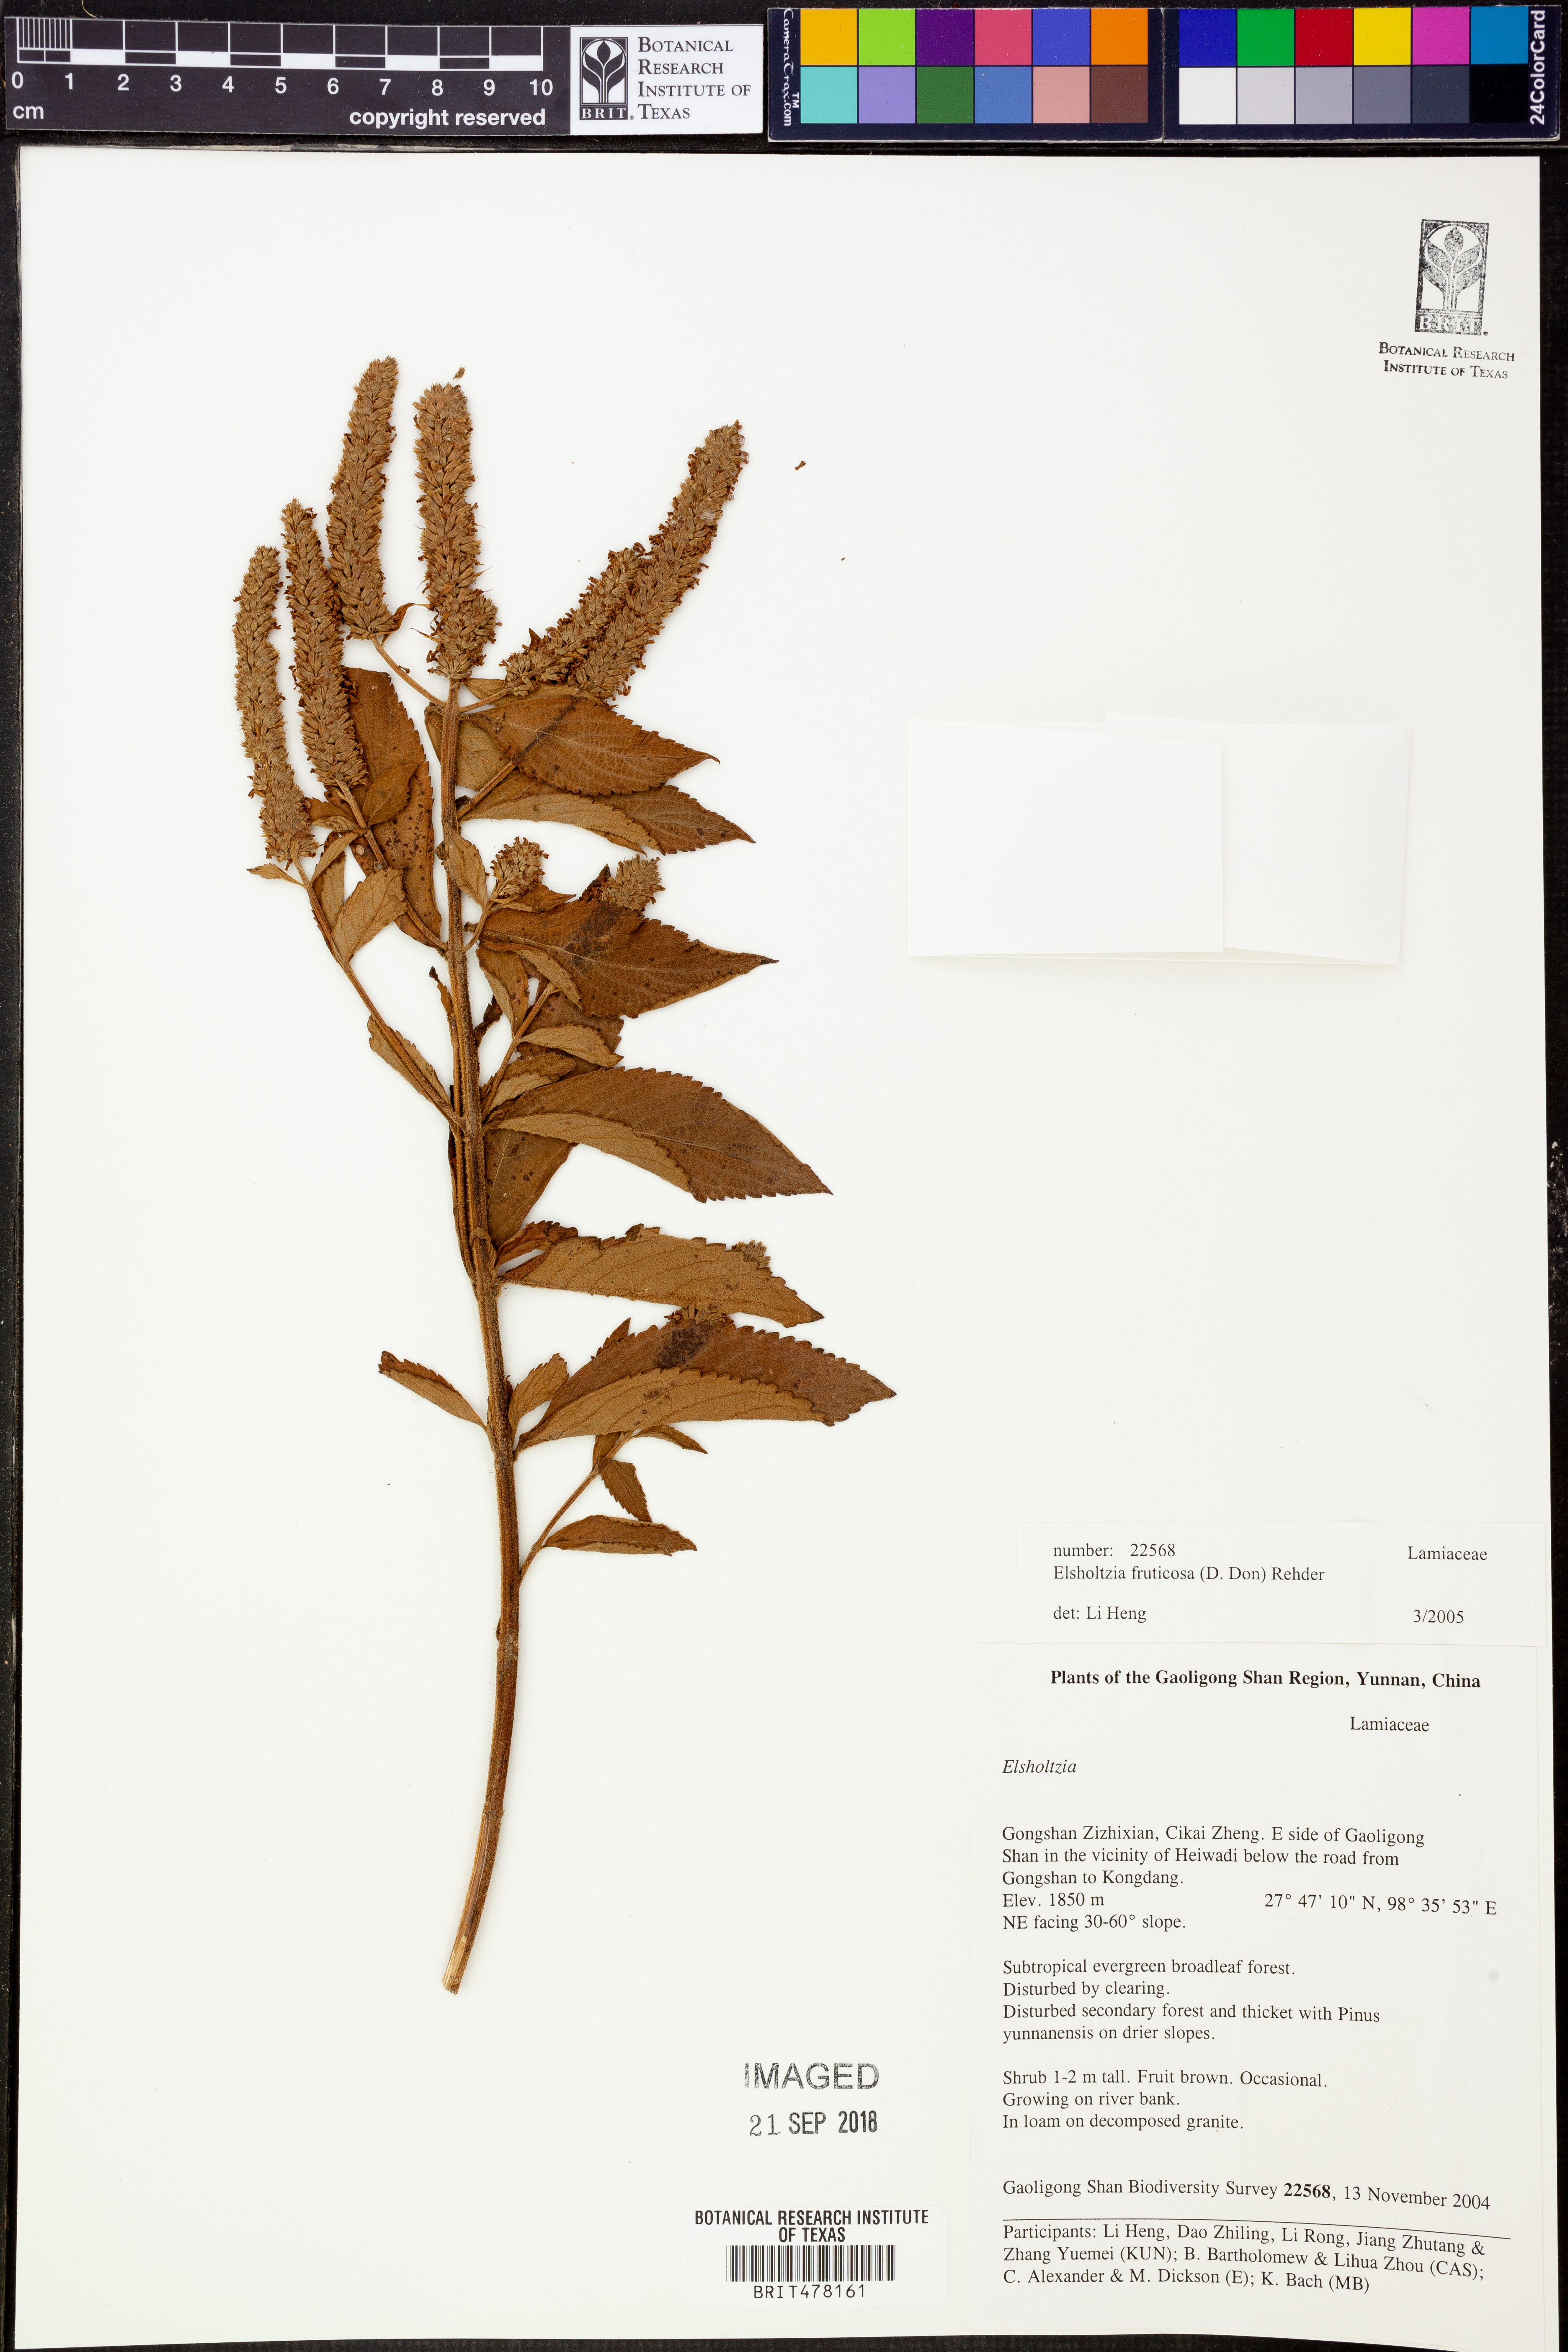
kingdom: Plantae
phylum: Tracheophyta
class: Magnoliopsida
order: Lamiales
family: Lamiaceae
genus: Elsholtzia
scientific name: Elsholtzia fruticosa
